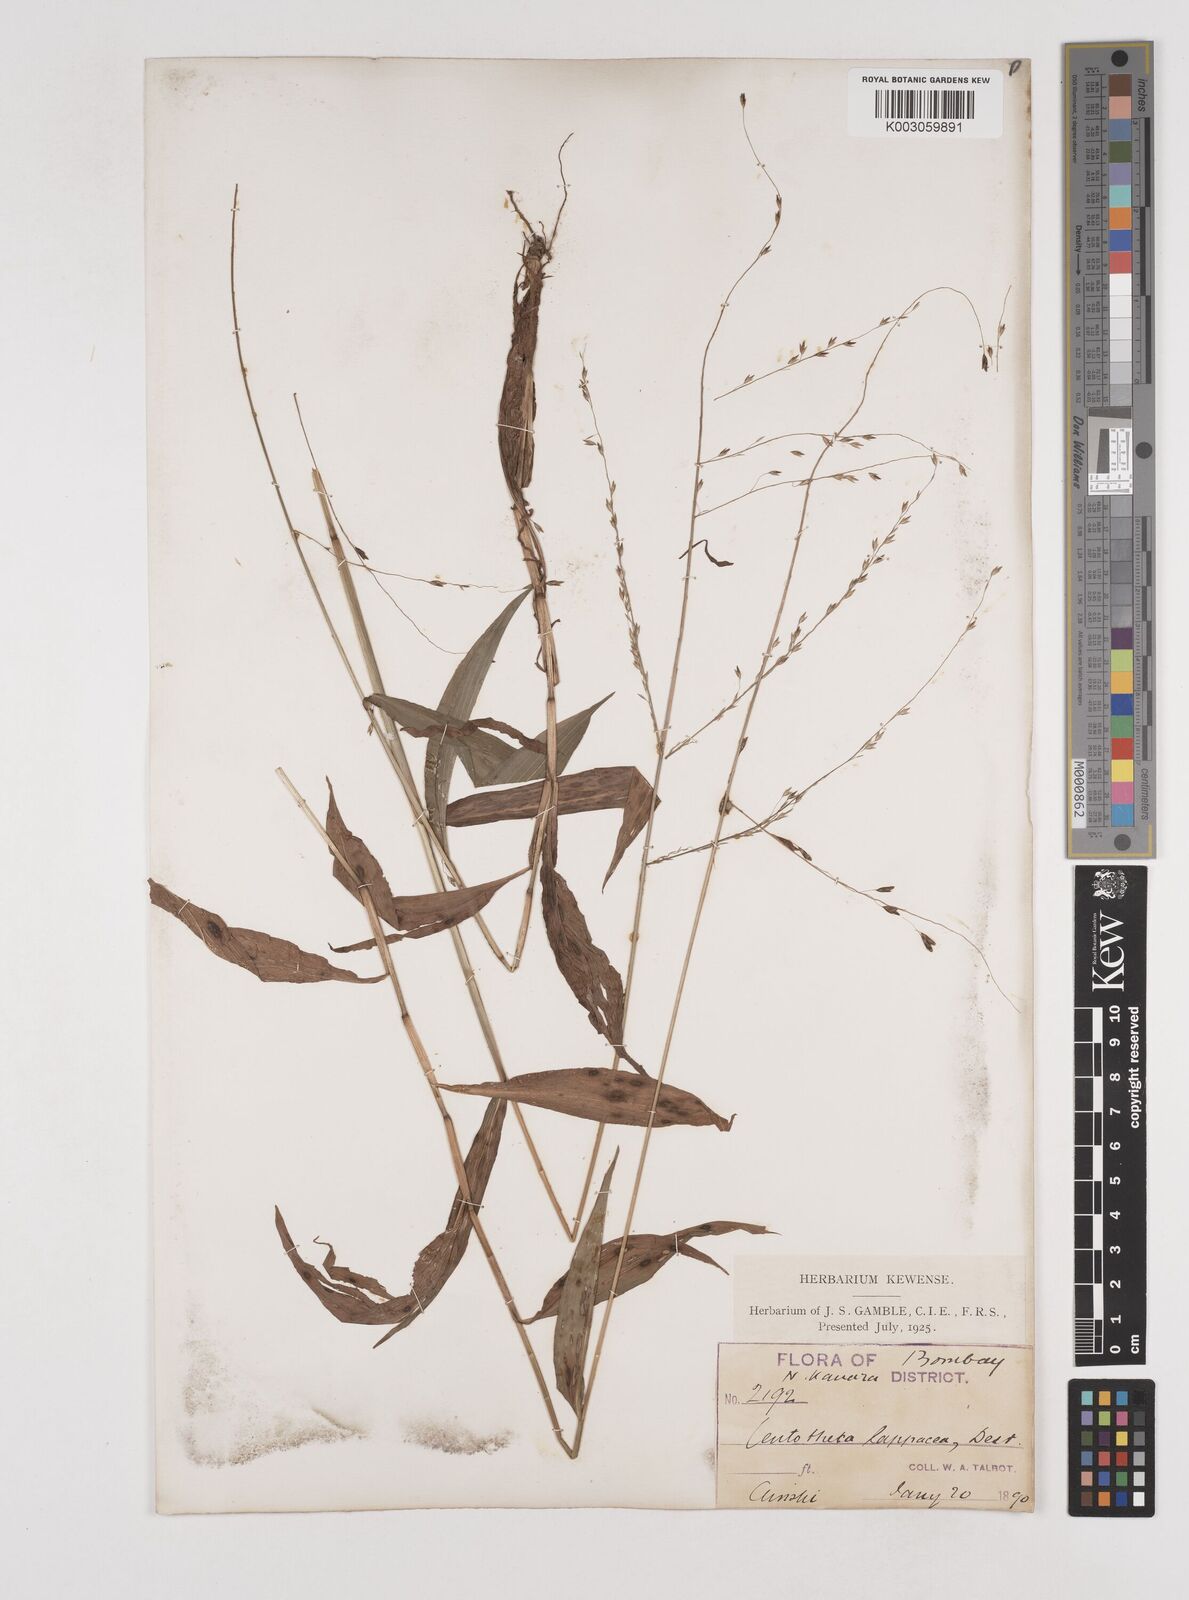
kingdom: Plantae
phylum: Tracheophyta
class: Liliopsida
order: Poales
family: Poaceae
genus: Centotheca
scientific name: Centotheca lappacea
